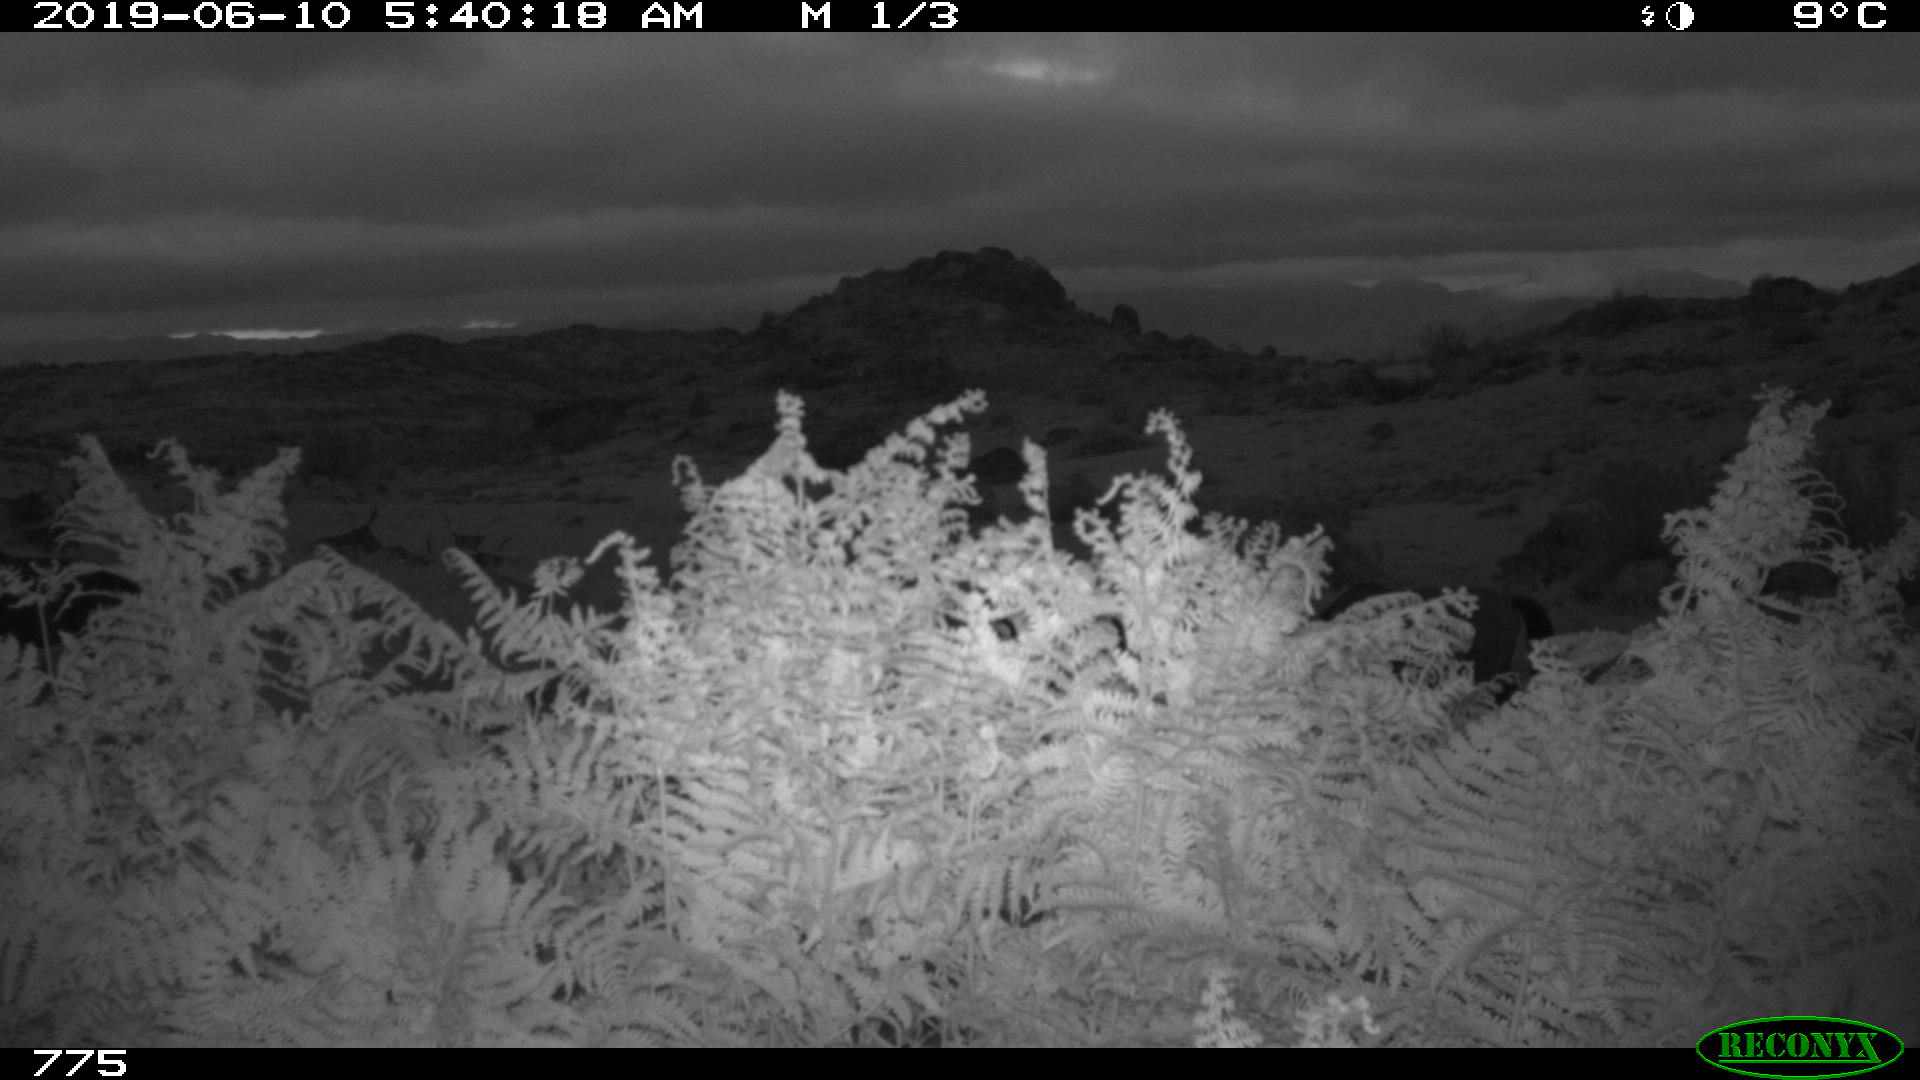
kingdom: Animalia
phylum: Chordata
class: Mammalia
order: Perissodactyla
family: Equidae
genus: Equus
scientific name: Equus caballus
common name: Horse
